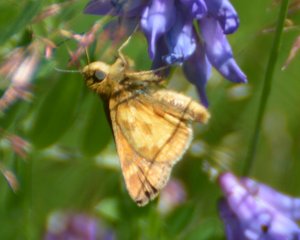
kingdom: Animalia
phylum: Arthropoda
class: Insecta
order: Lepidoptera
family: Hesperiidae
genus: Polites
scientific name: Polites coras
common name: Peck's Skipper
